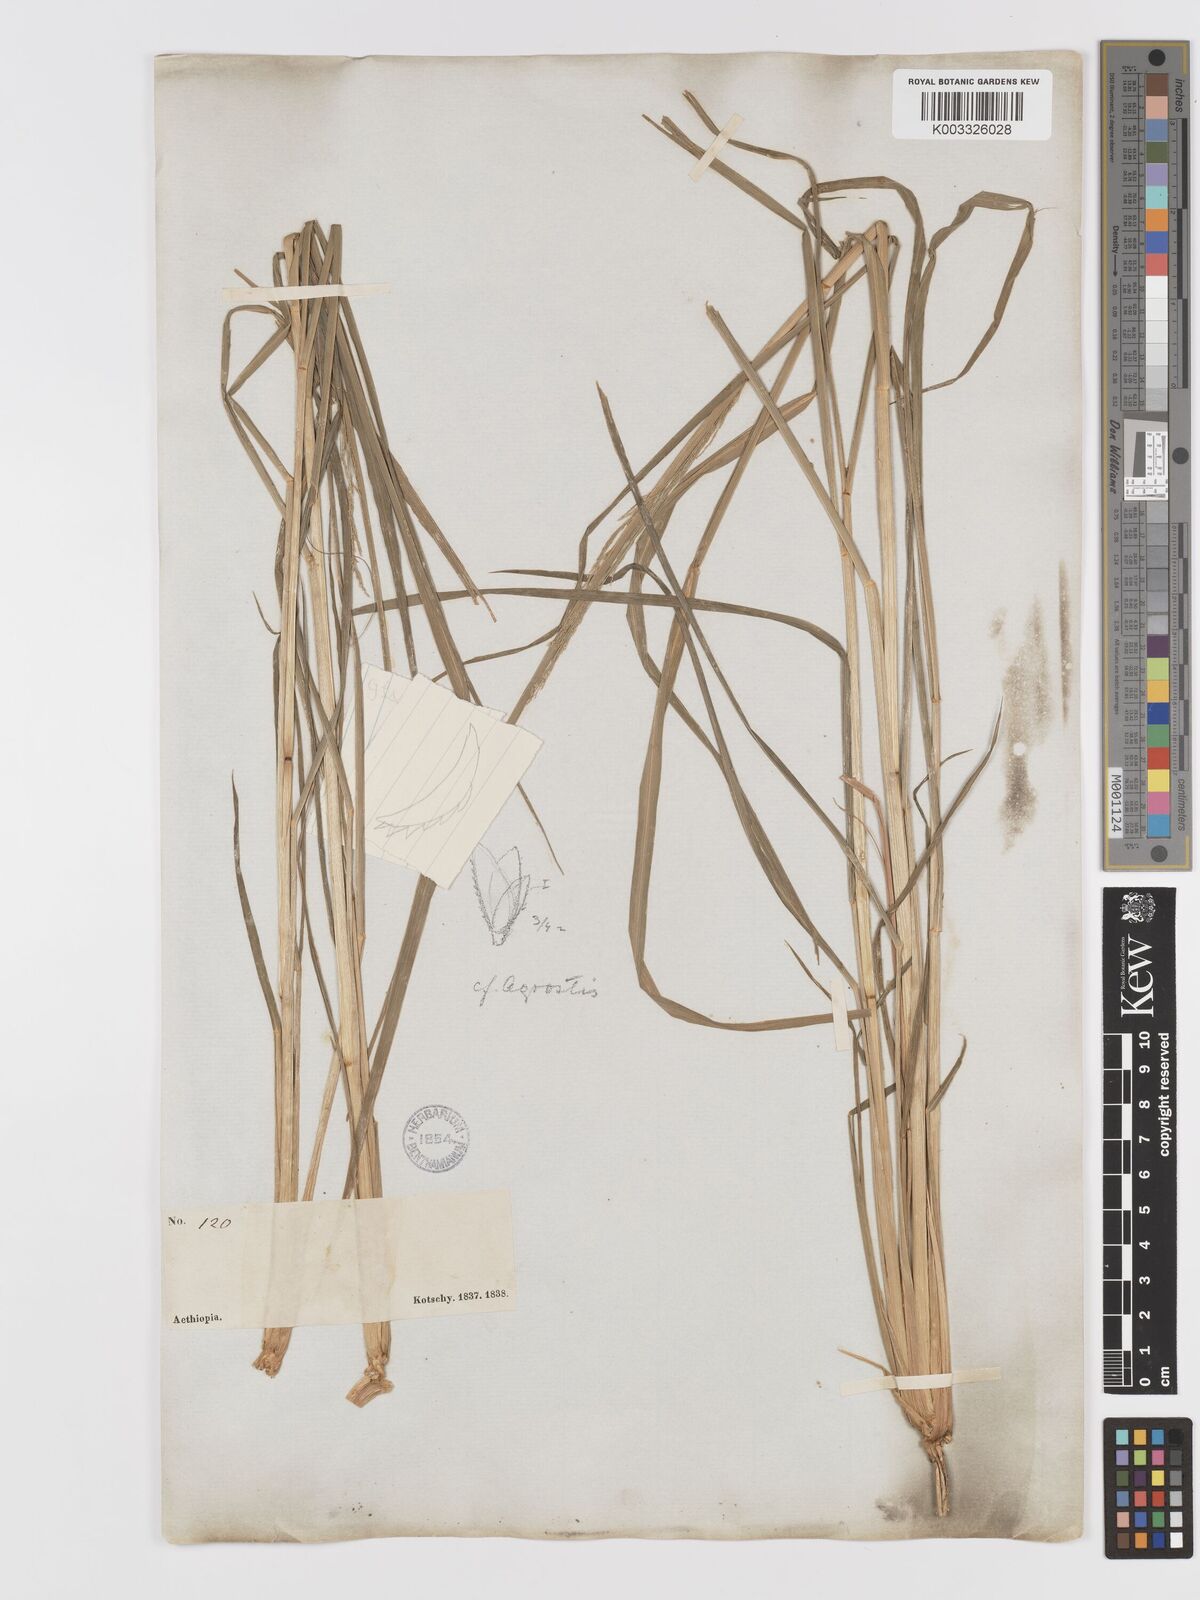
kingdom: Plantae
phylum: Tracheophyta
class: Liliopsida
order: Poales
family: Poaceae
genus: Eragrostis
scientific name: Eragrostis japonica
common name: Pond lovegrass
